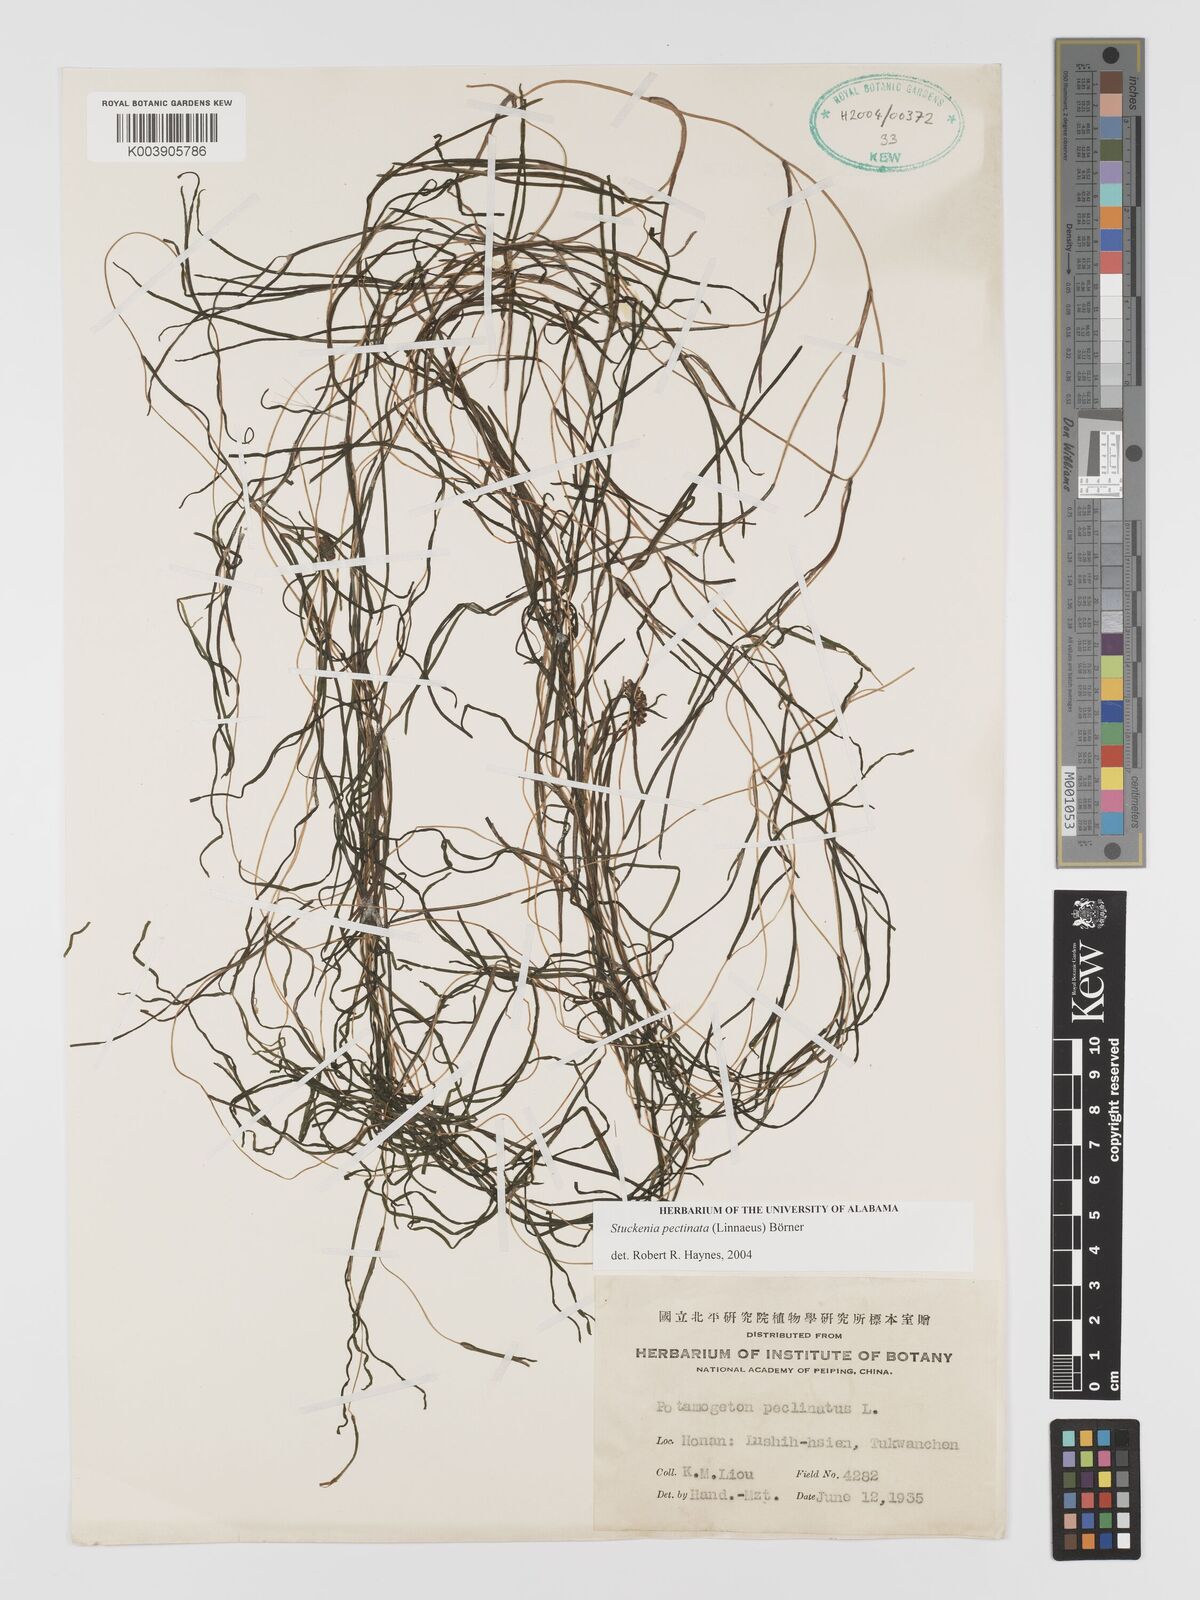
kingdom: Plantae
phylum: Tracheophyta
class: Liliopsida
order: Alismatales
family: Potamogetonaceae
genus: Stuckenia
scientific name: Stuckenia pectinata
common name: Sago pondweed
